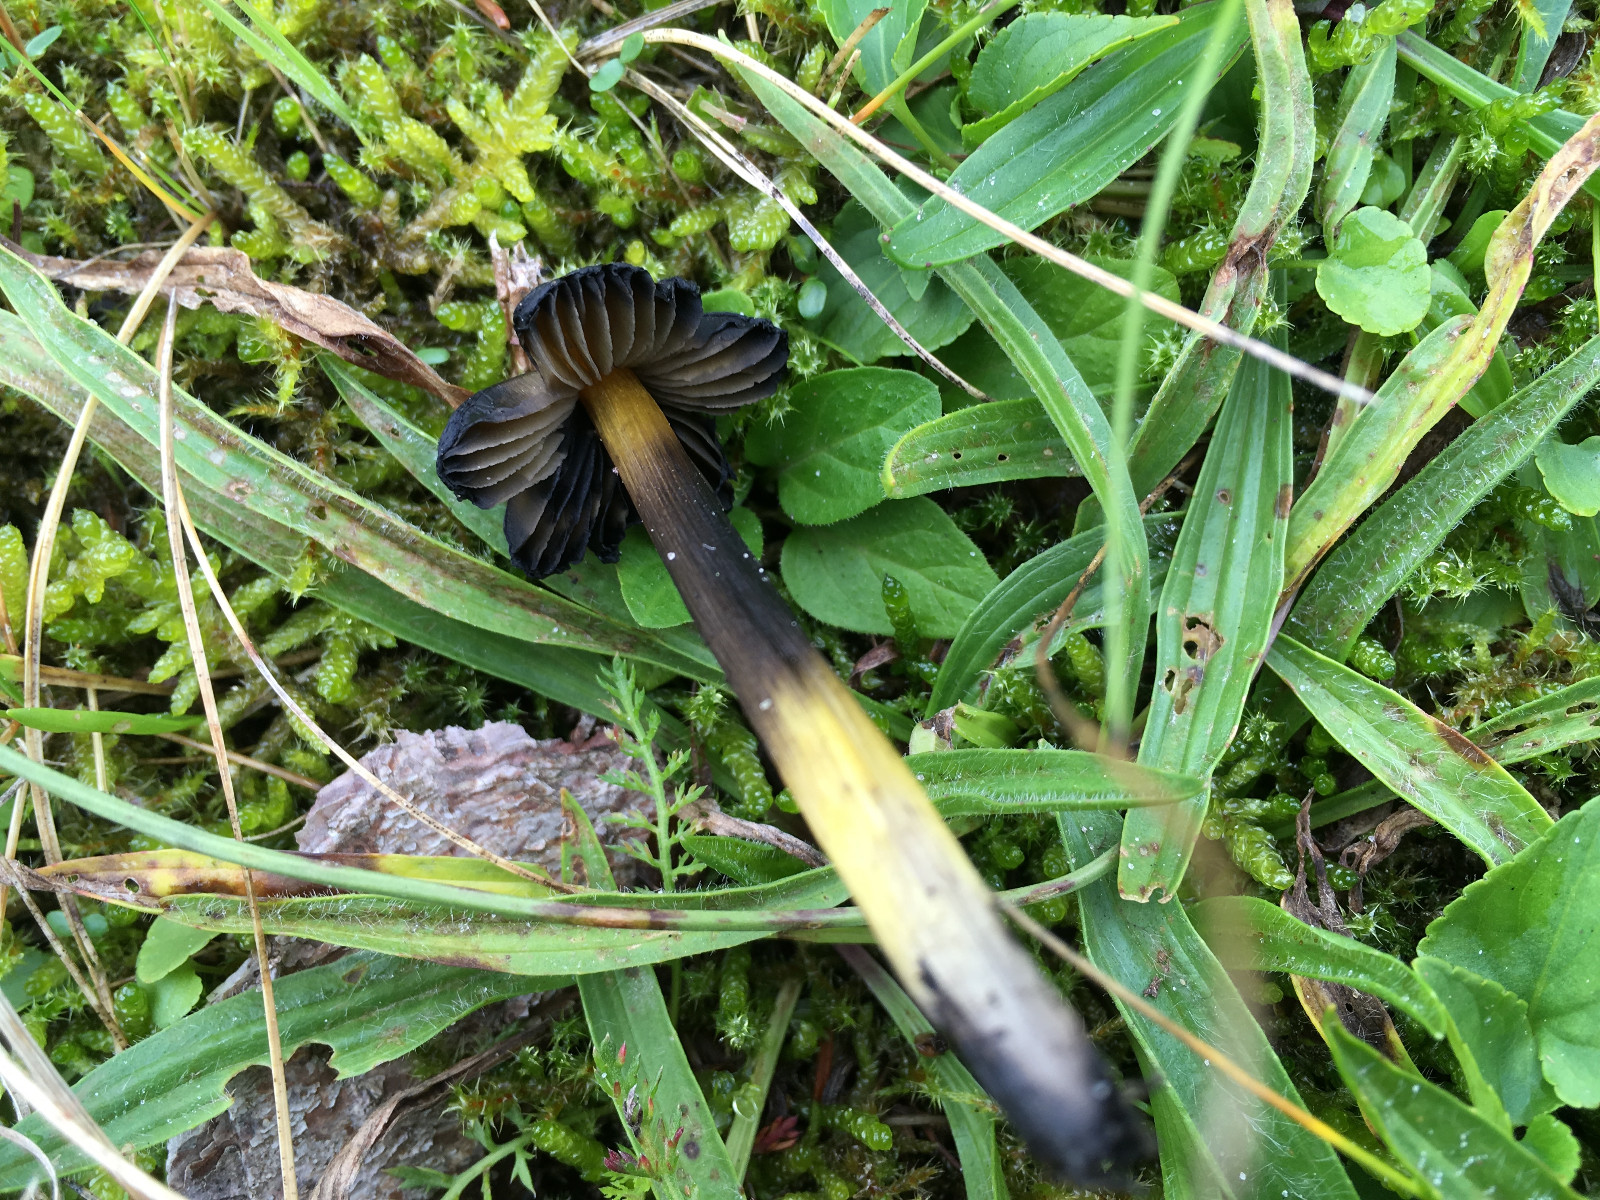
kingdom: Fungi
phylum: Basidiomycota
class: Agaricomycetes
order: Agaricales
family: Hygrophoraceae
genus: Hygrocybe
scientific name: Hygrocybe conica
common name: kegle-vokshat
